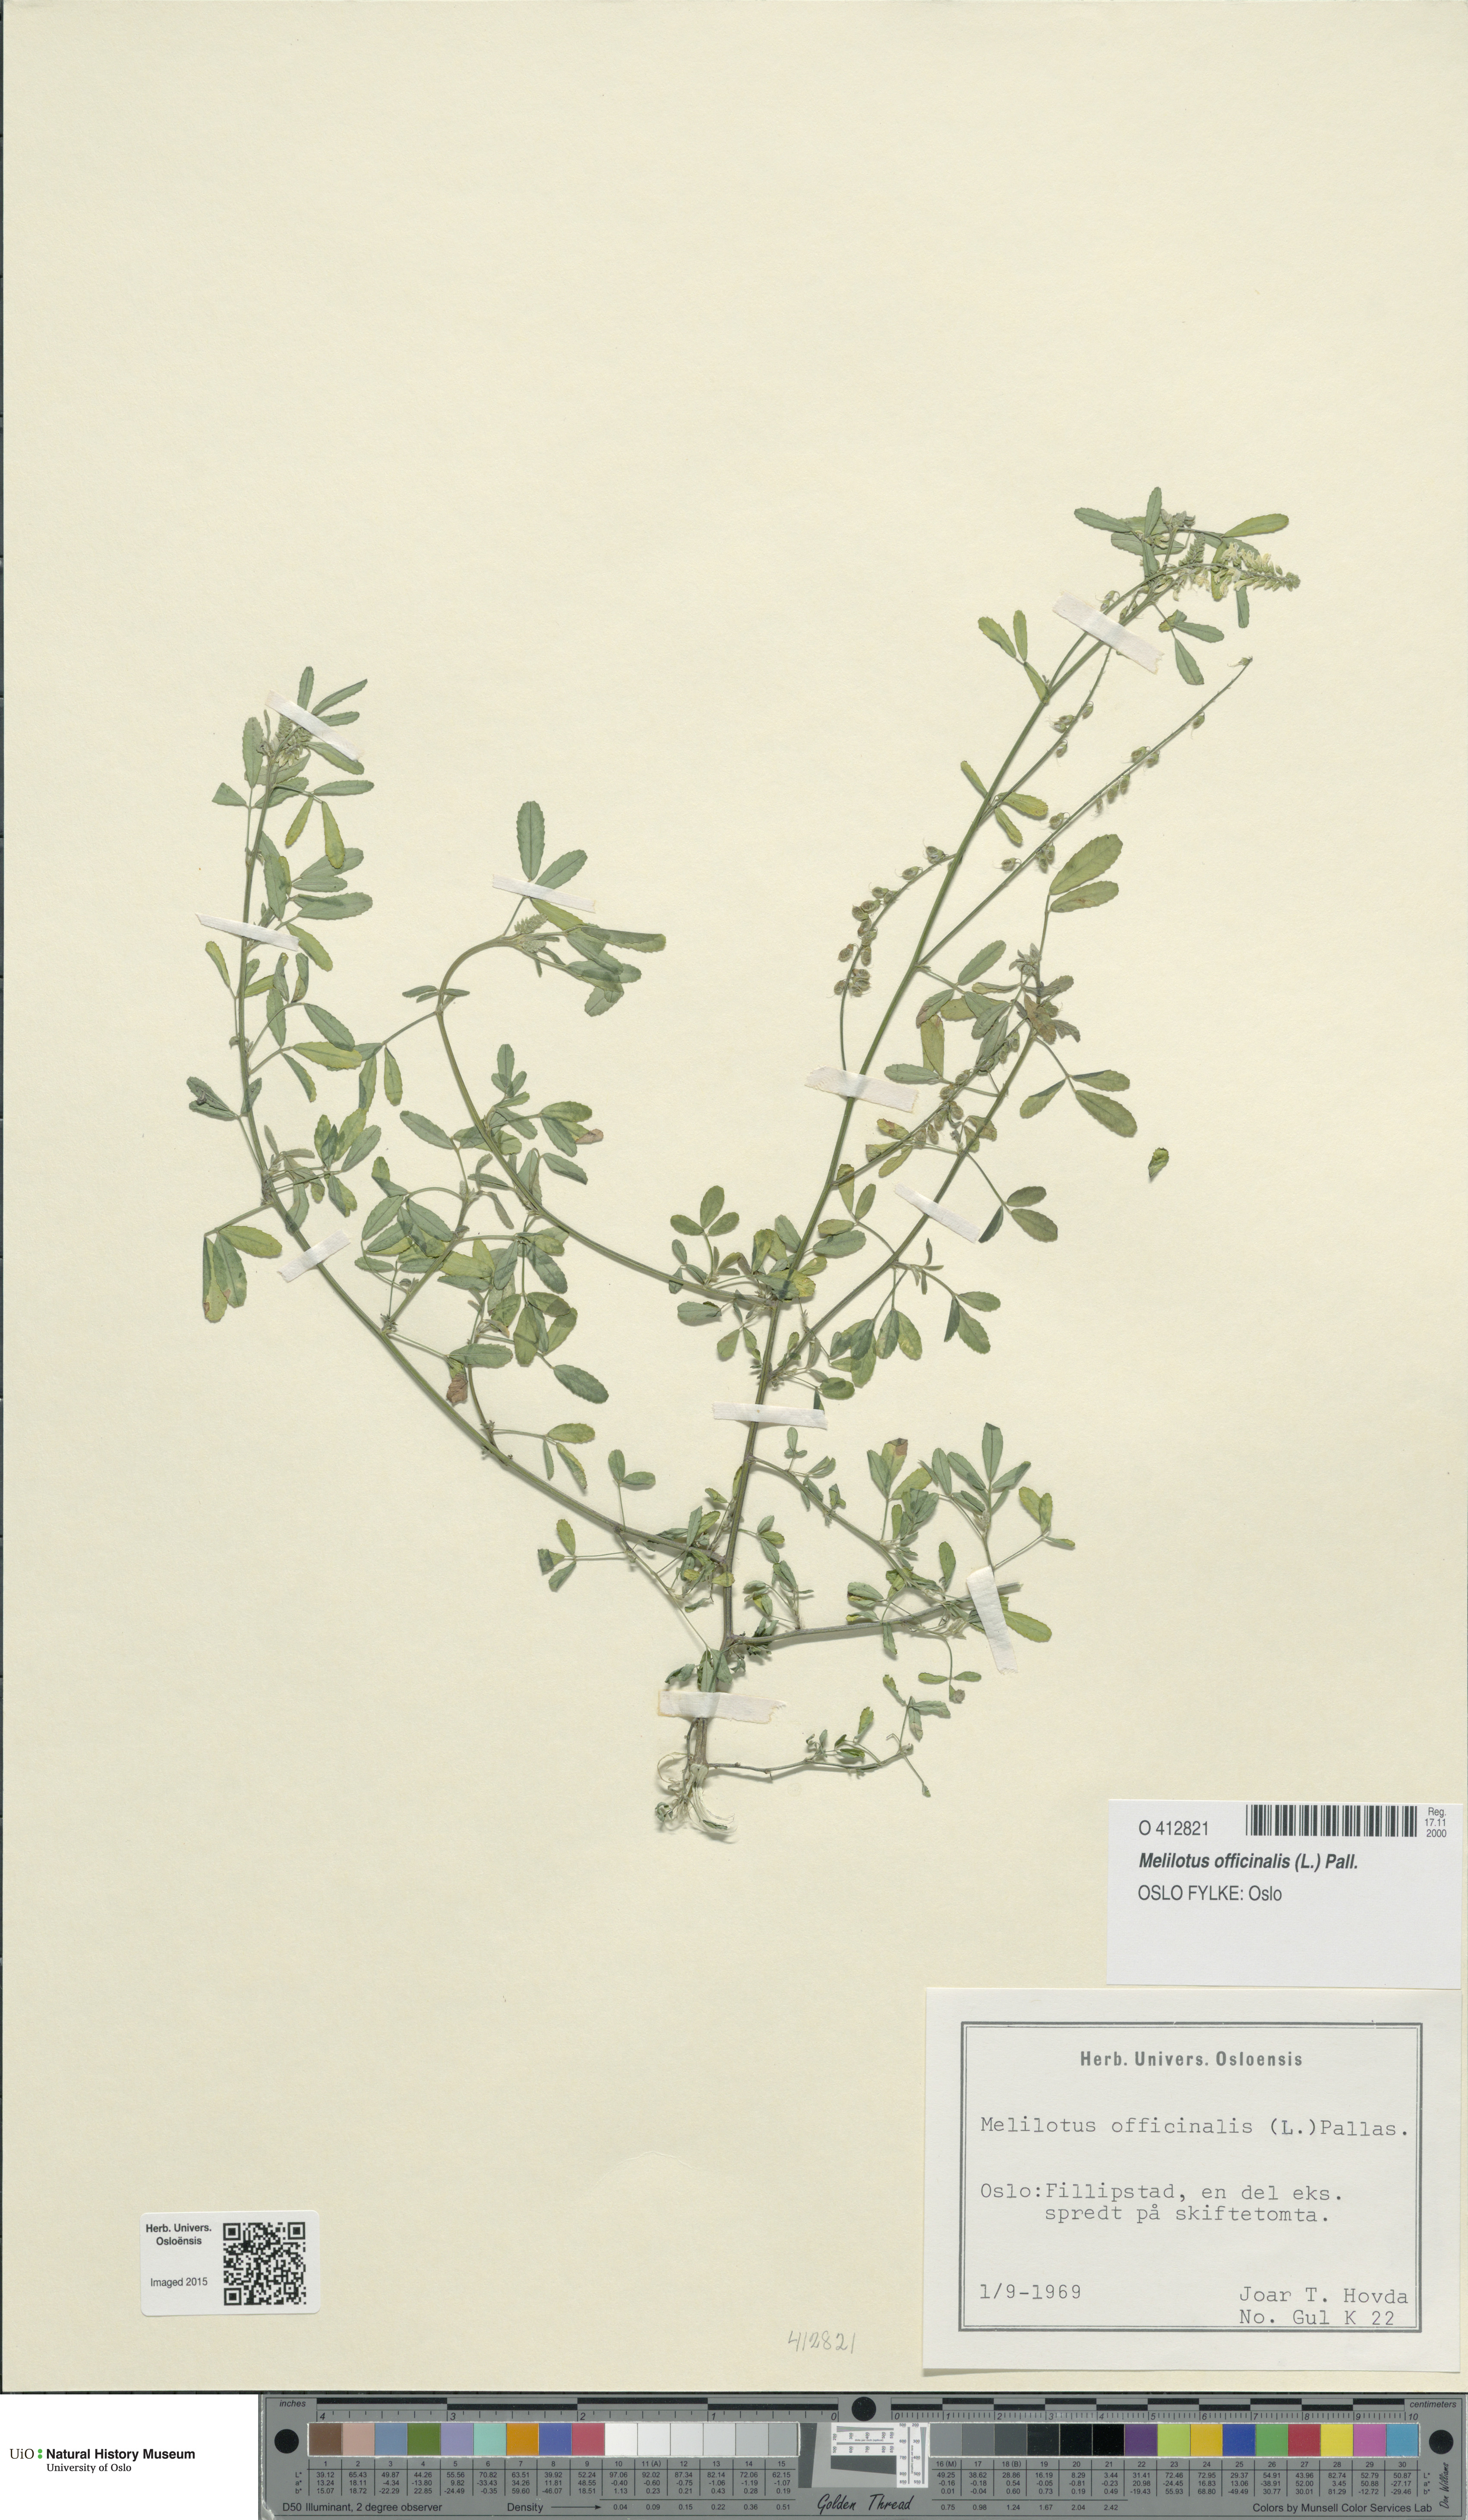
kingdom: Plantae
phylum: Tracheophyta
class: Magnoliopsida
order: Fabales
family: Fabaceae
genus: Melilotus
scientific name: Melilotus officinalis
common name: Sweetclover
